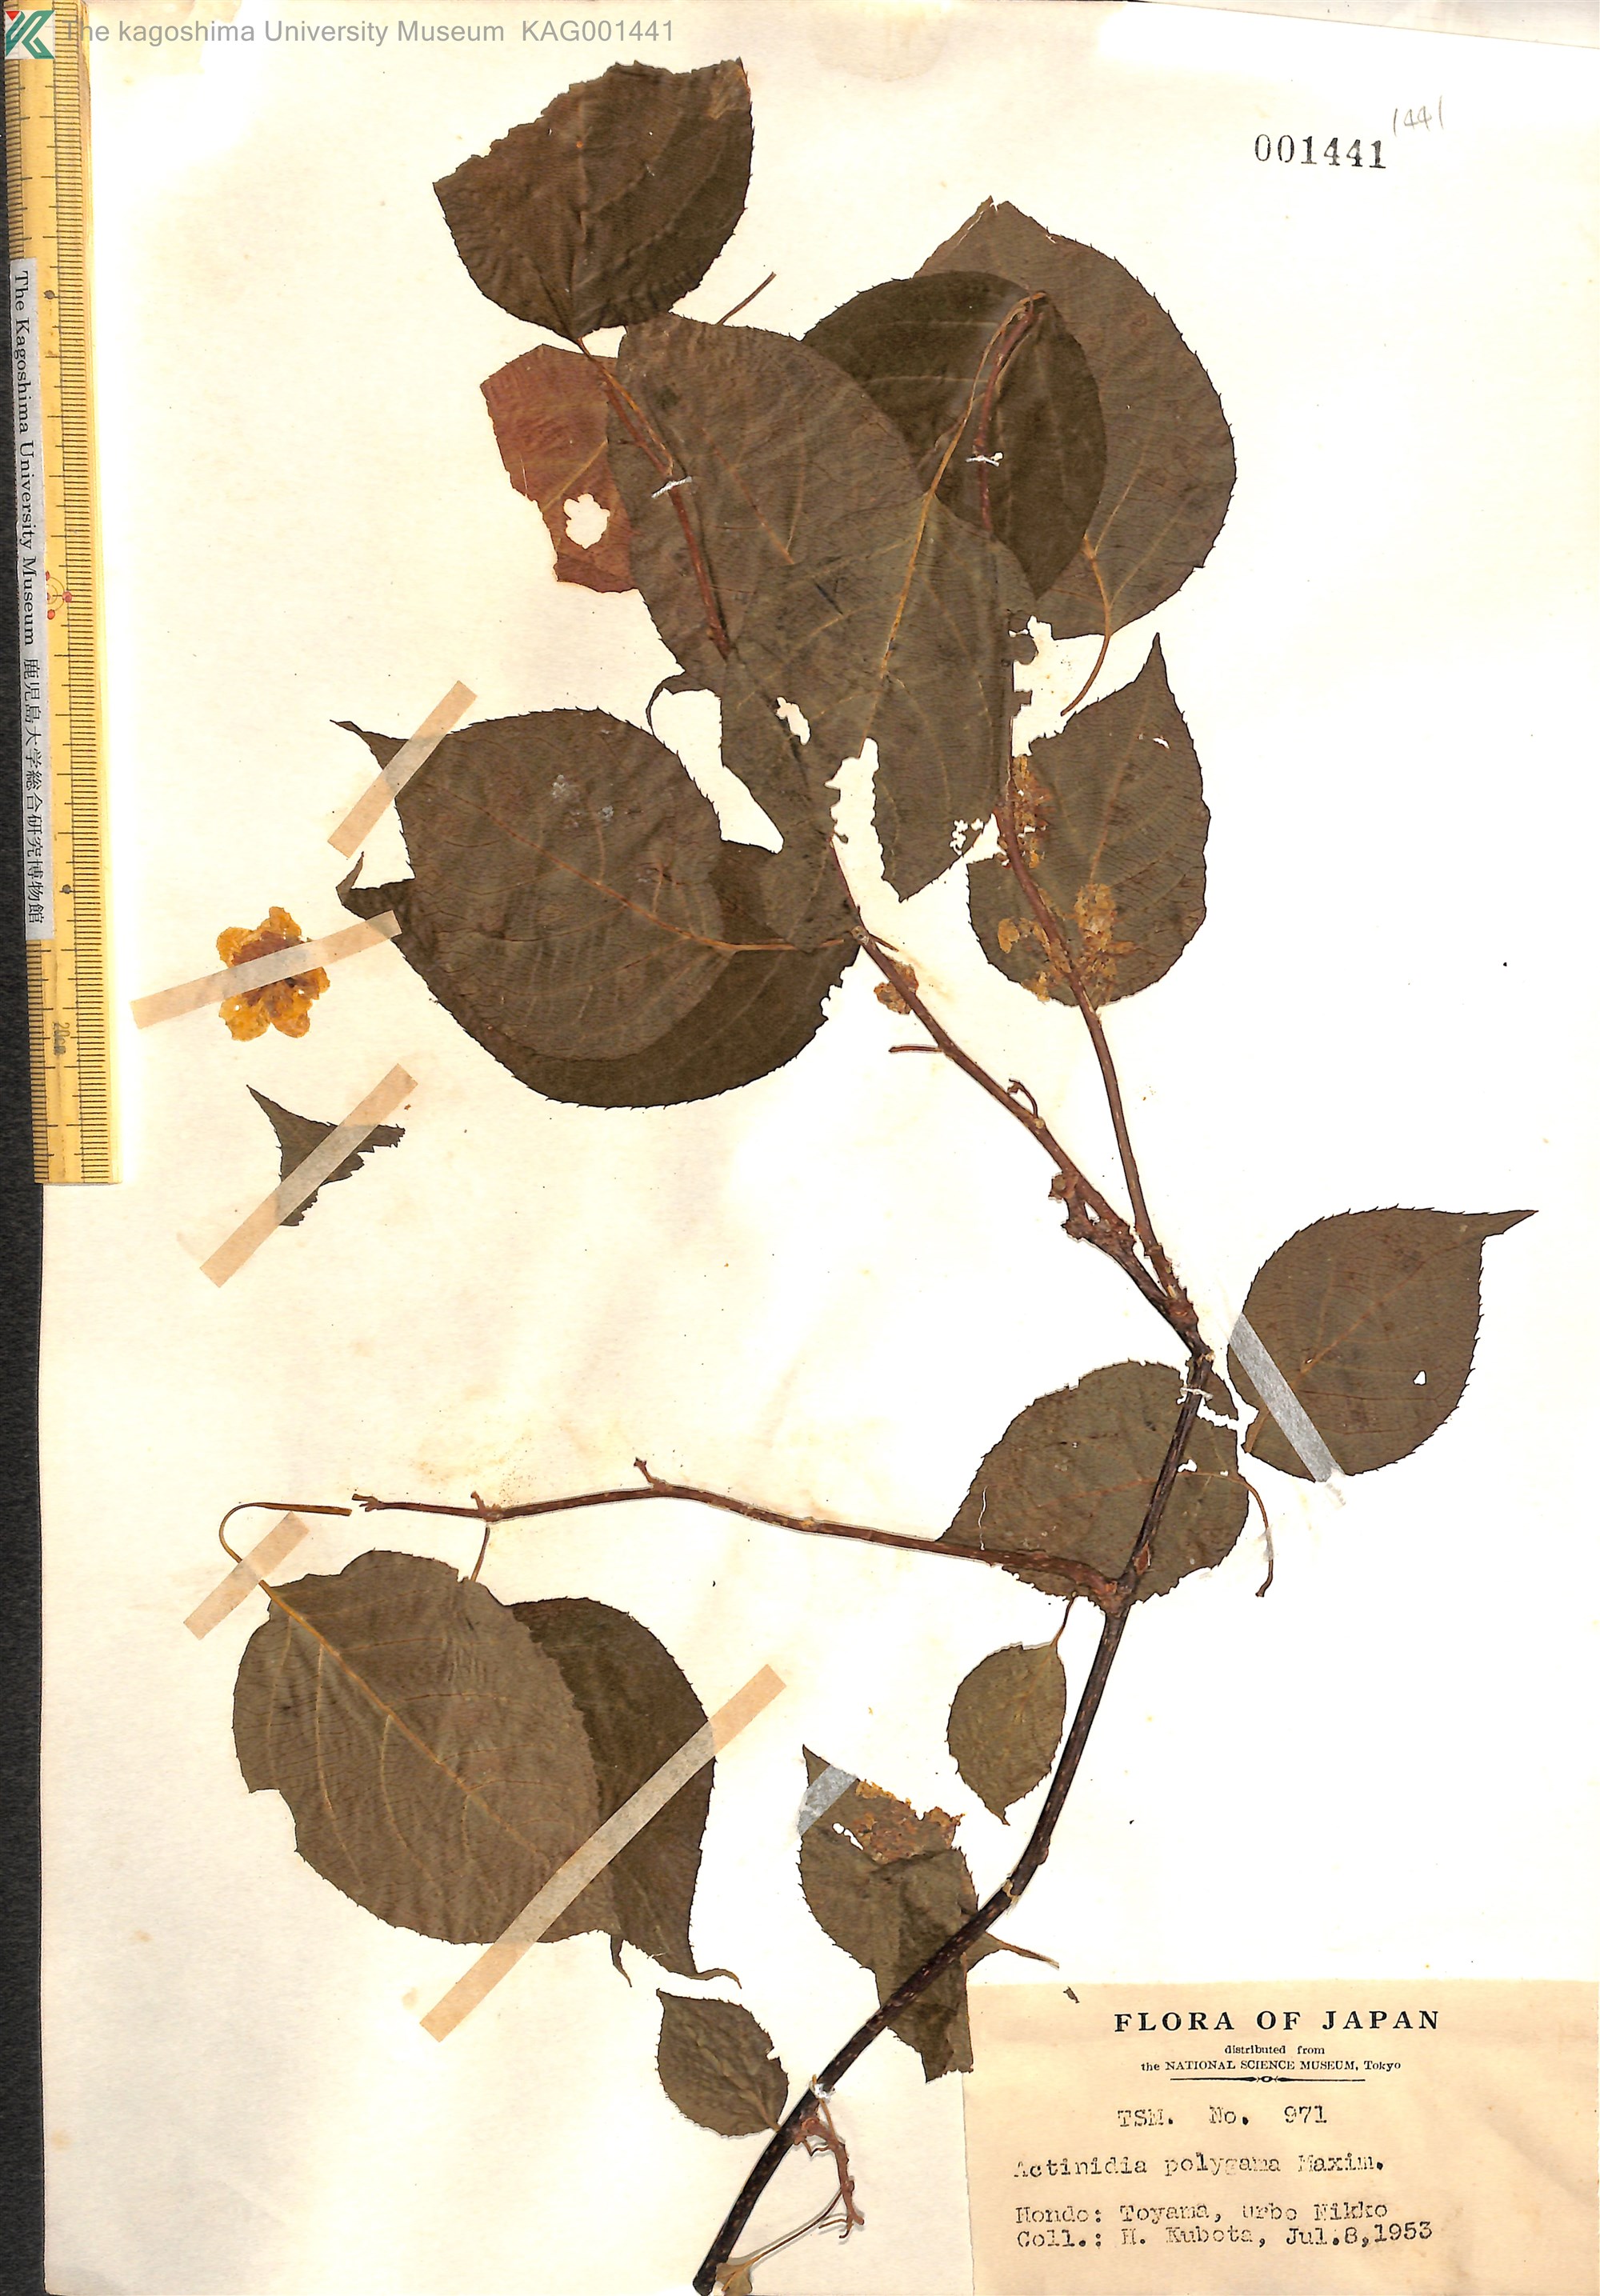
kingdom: Plantae
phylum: Tracheophyta
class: Magnoliopsida
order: Ericales
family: Actinidiaceae
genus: Actinidia
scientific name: Actinidia polygama
